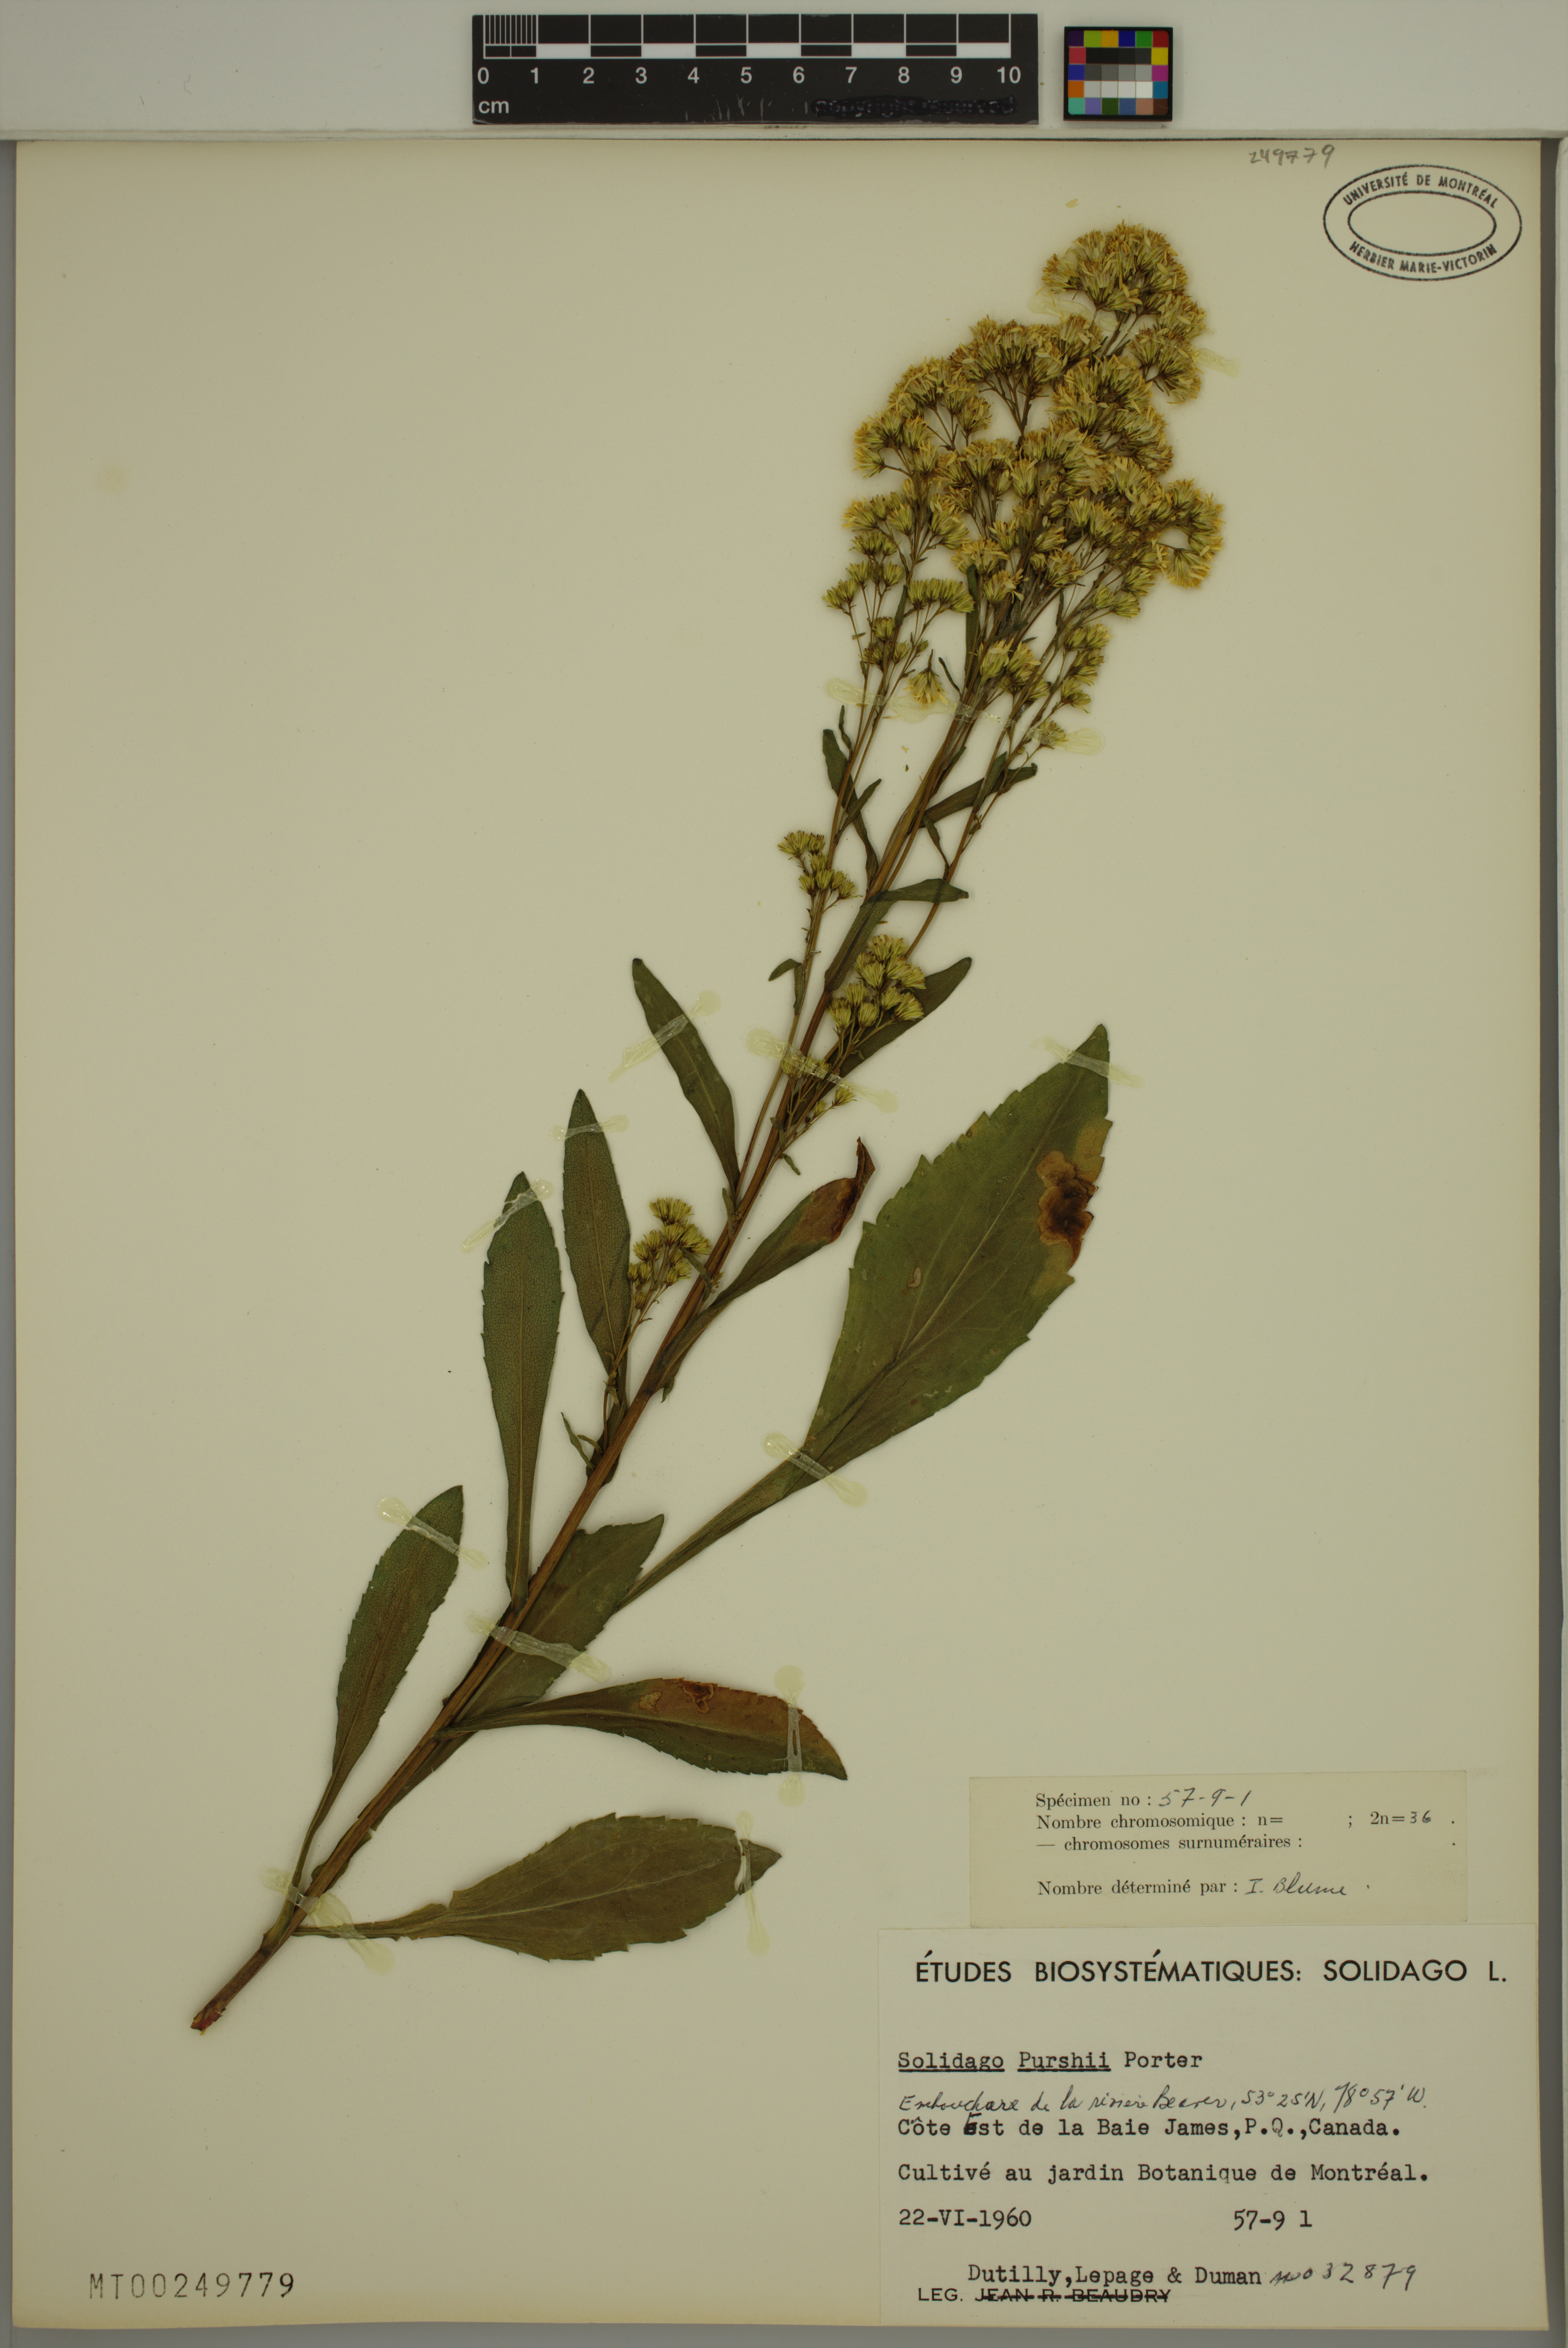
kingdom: Plantae
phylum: Tracheophyta
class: Magnoliopsida
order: Asterales
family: Asteraceae
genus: Solidago
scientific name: Solidago uliginosa
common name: Bog goldenrod
